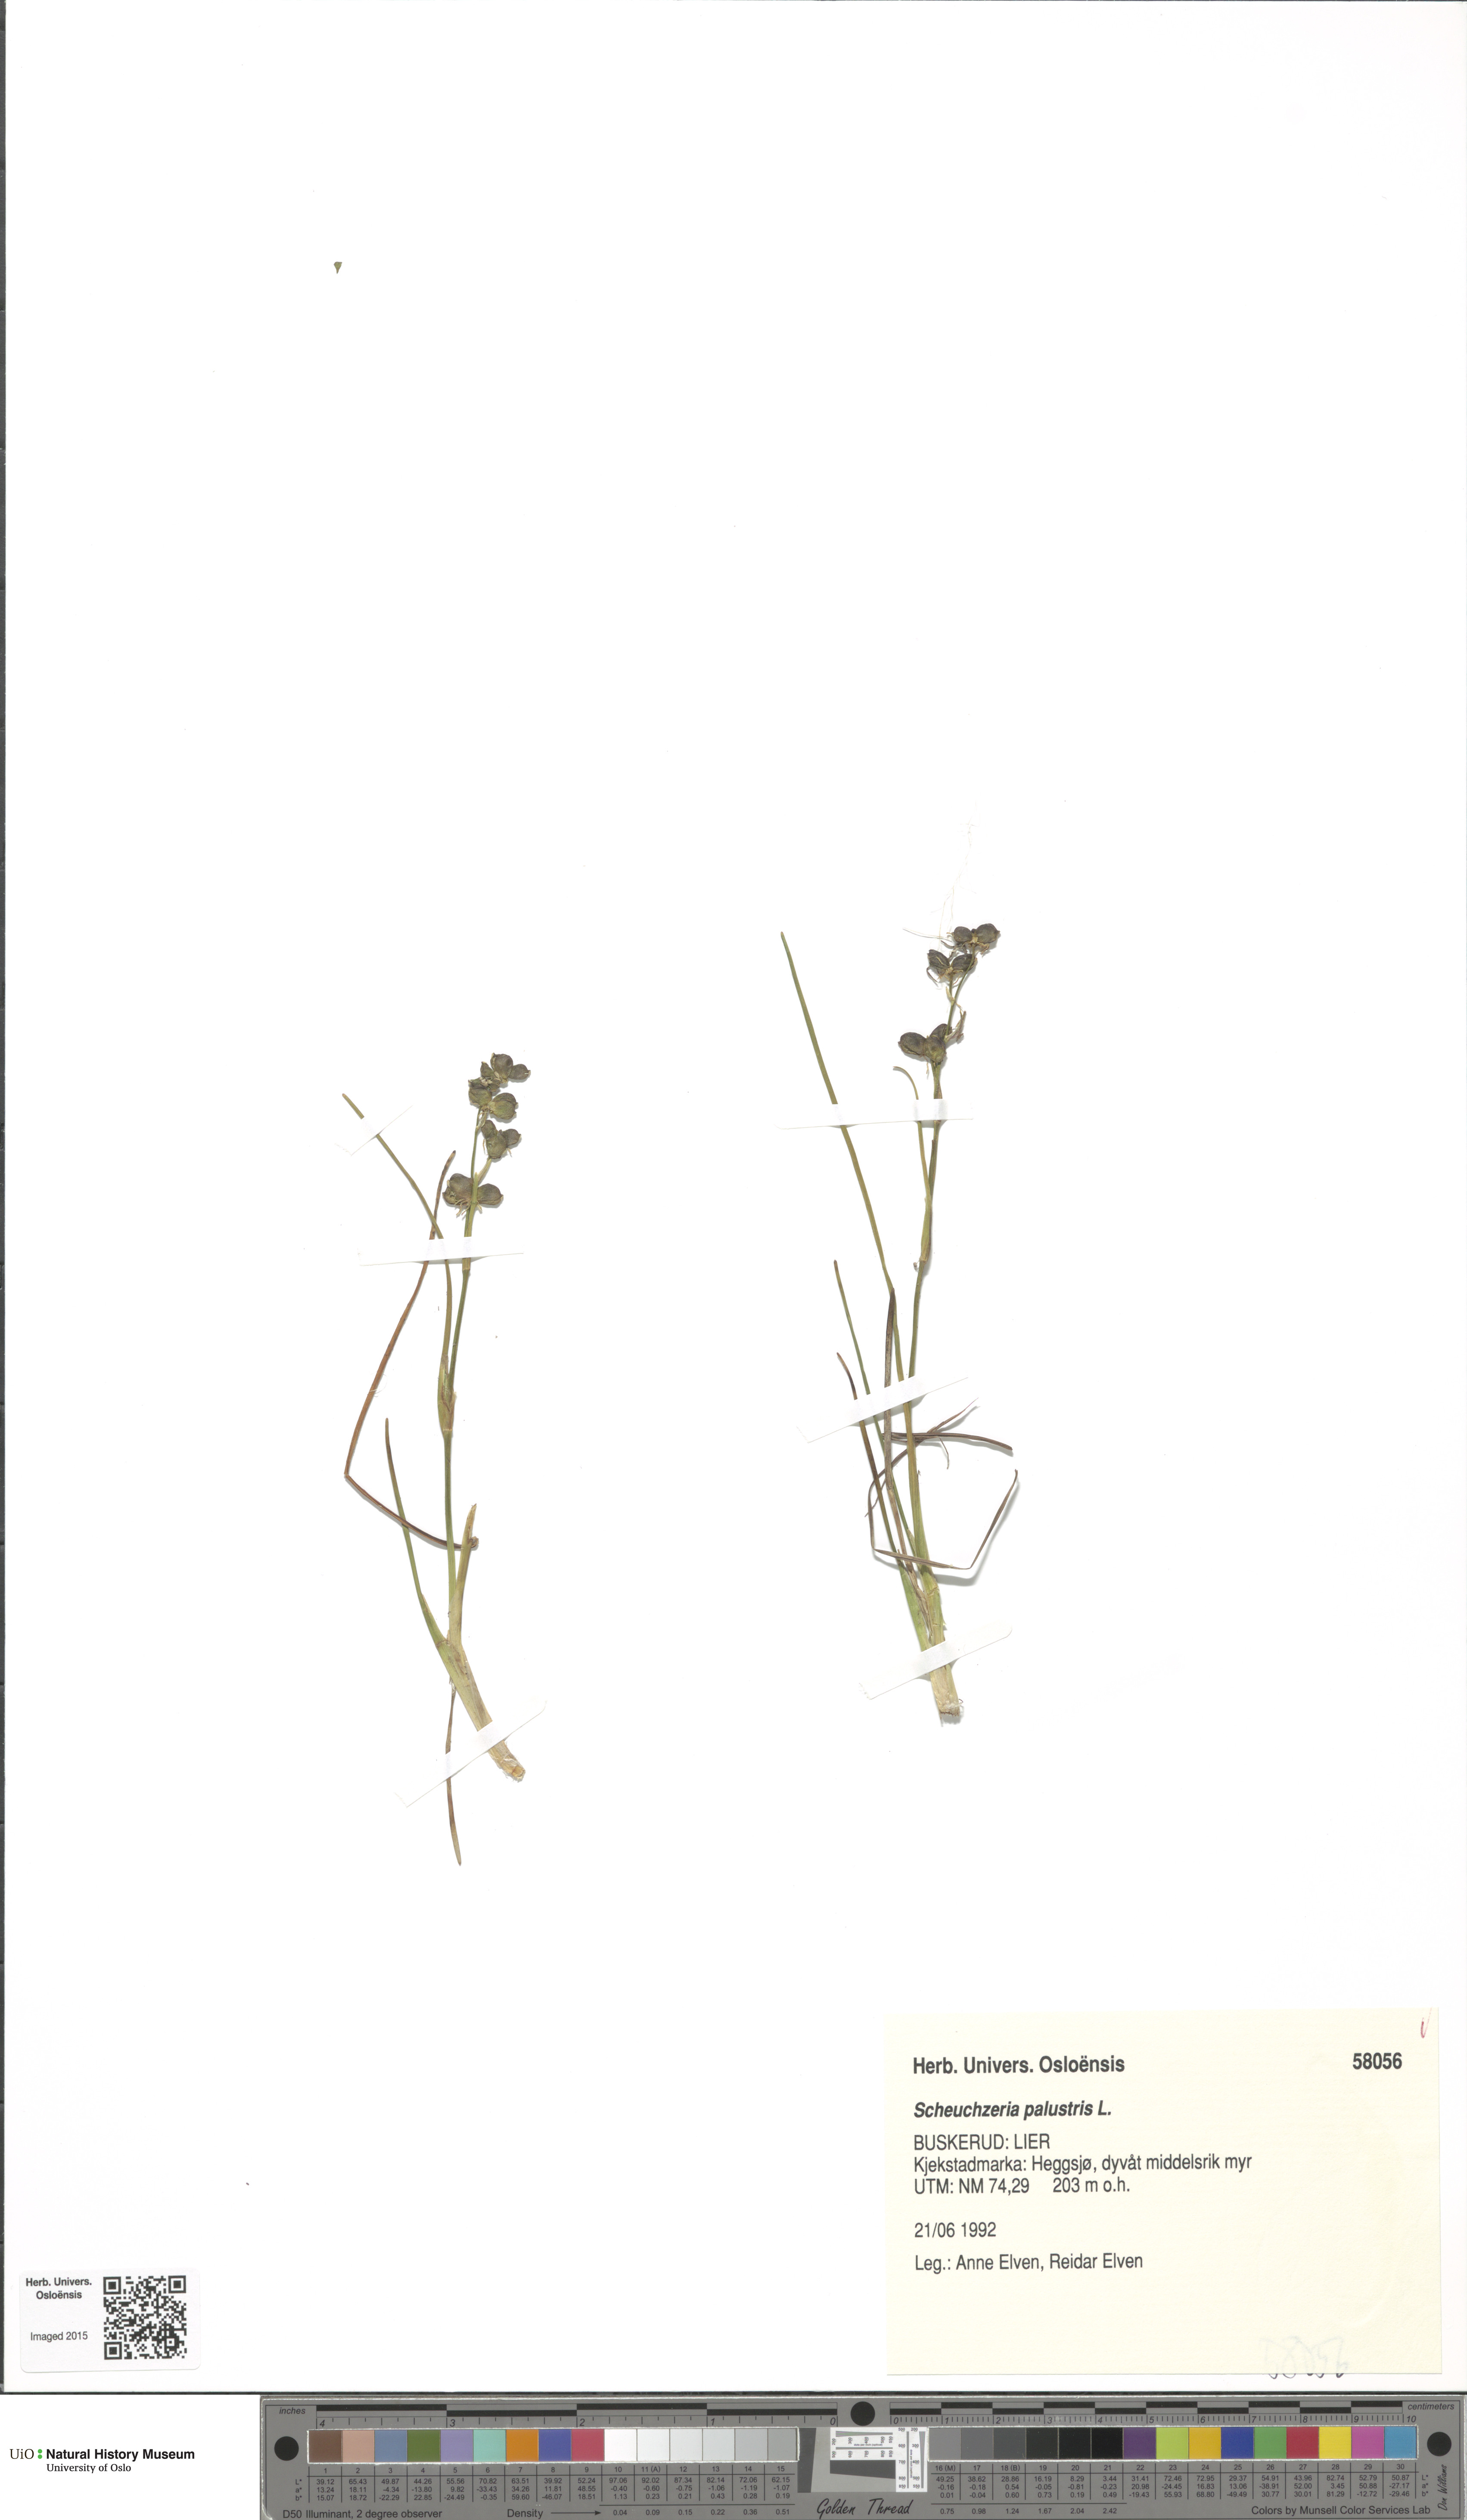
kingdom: Plantae
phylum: Tracheophyta
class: Liliopsida
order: Alismatales
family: Scheuchzeriaceae
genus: Scheuchzeria
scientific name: Scheuchzeria palustris
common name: Rannoch-rush
